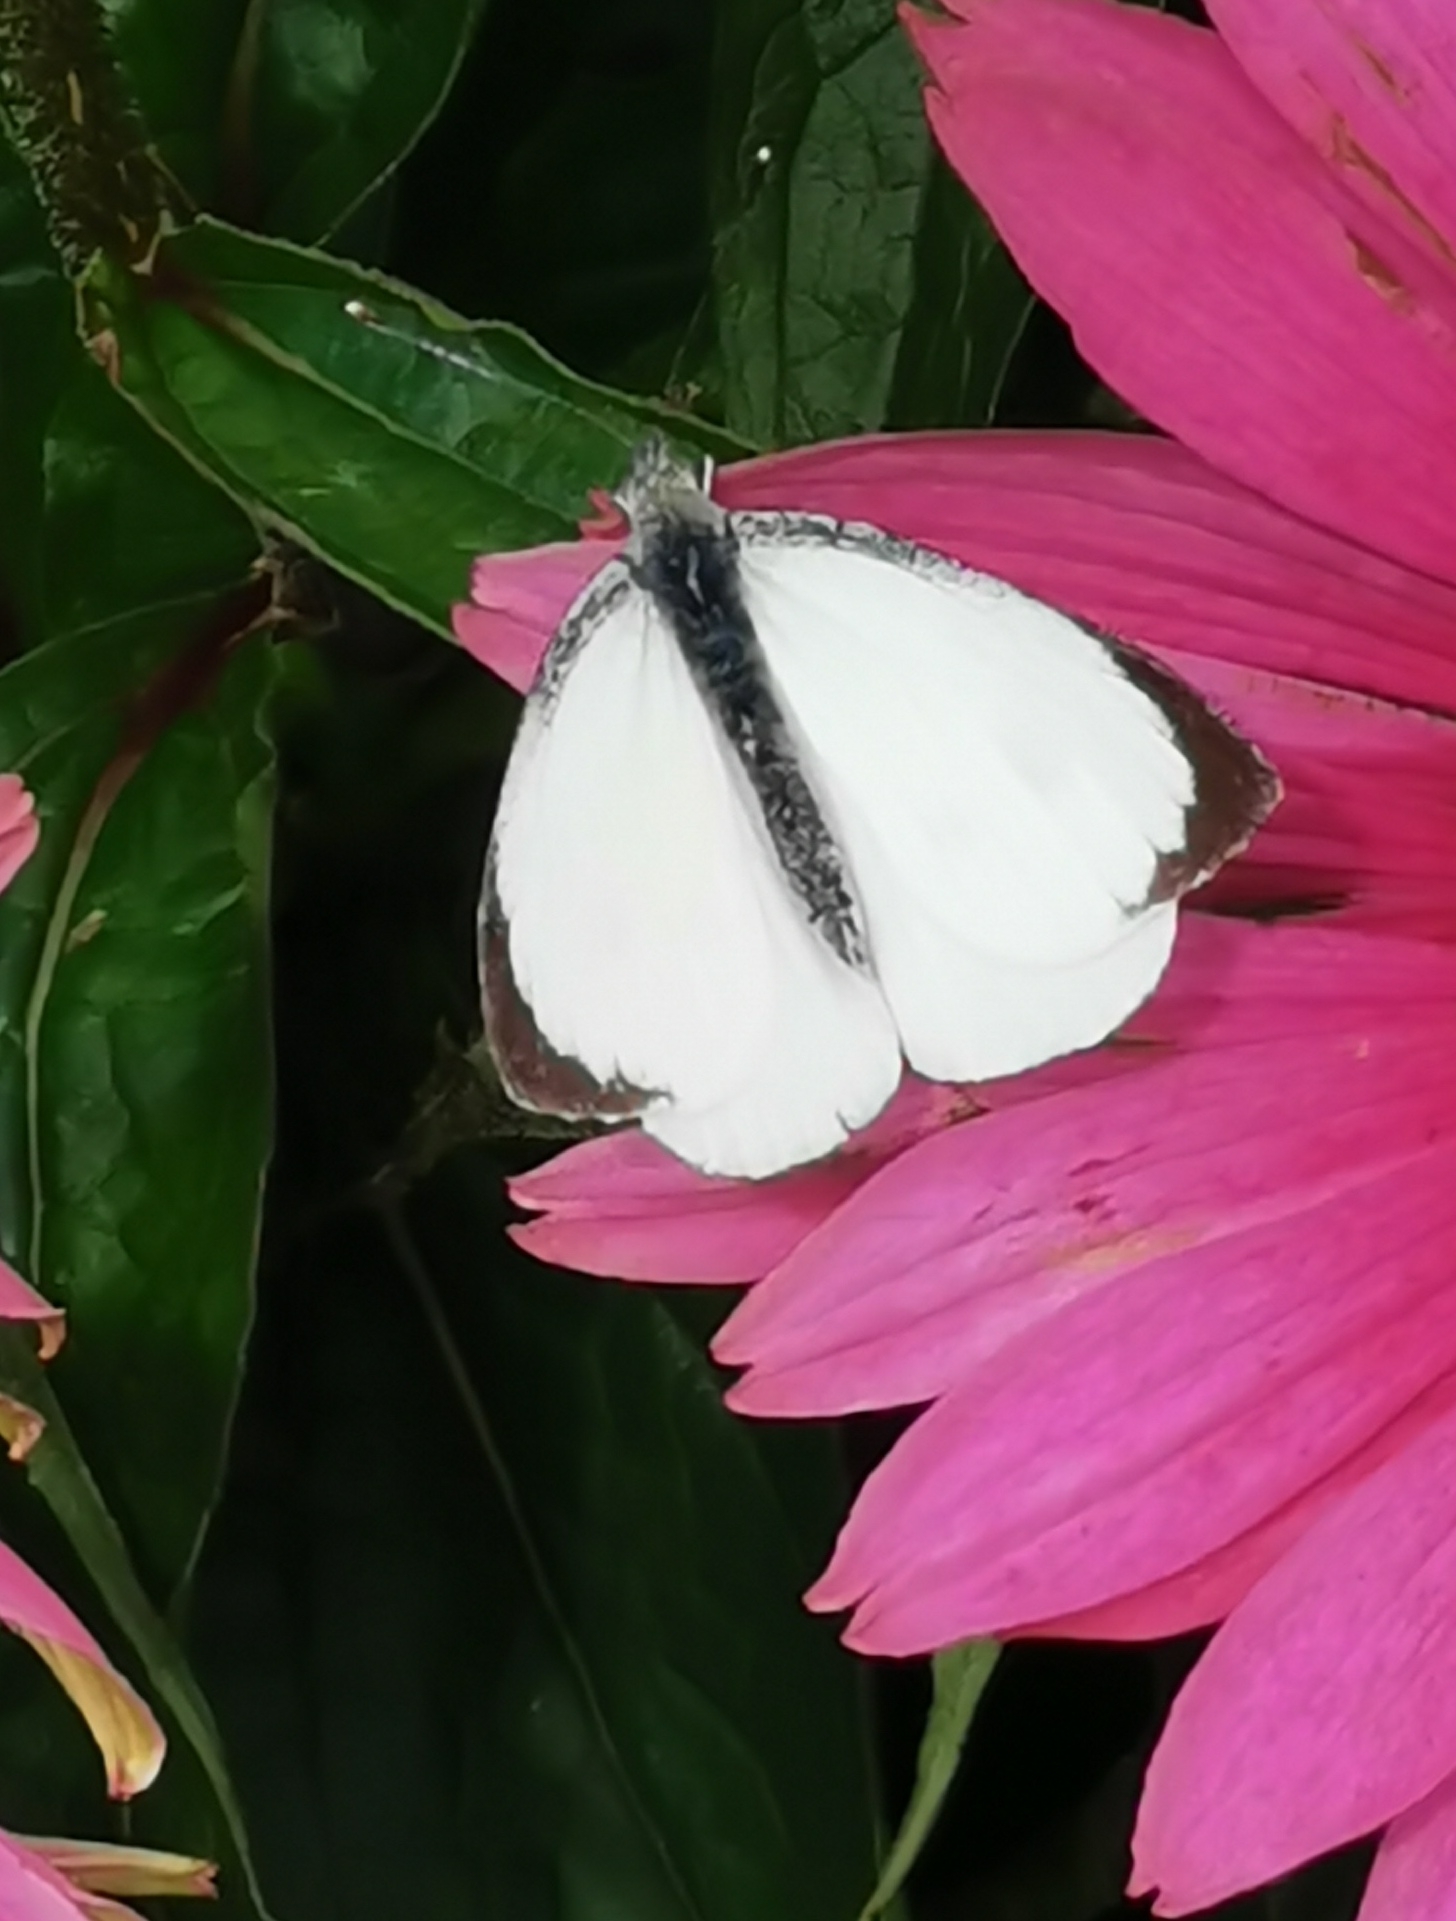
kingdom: Animalia
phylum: Arthropoda
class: Insecta
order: Lepidoptera
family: Pieridae
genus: Pieris
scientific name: Pieris brassicae
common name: Stor kålsommerfugl
